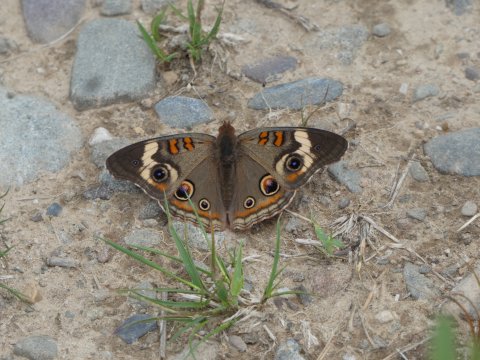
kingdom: Animalia
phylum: Arthropoda
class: Insecta
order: Lepidoptera
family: Nymphalidae
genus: Junonia
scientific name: Junonia coenia
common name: Common Buckeye
